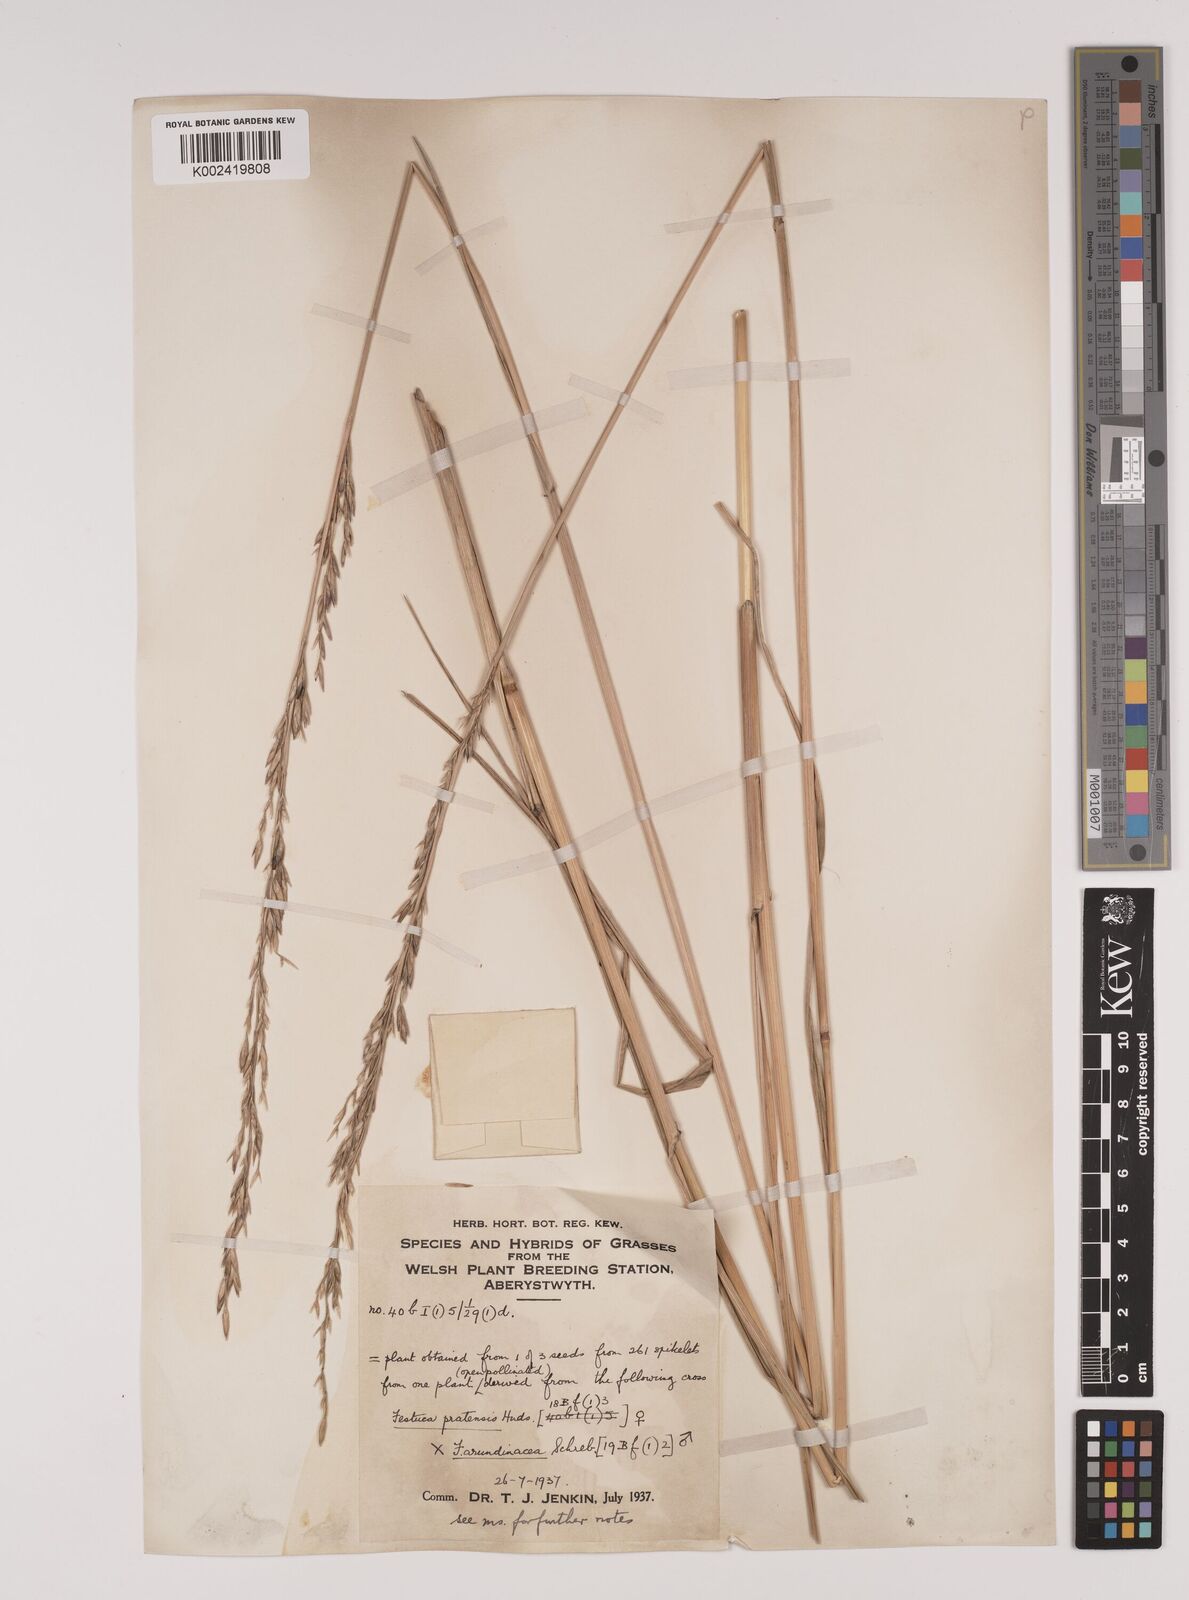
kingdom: Plantae
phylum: Tracheophyta
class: Liliopsida
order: Poales
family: Poaceae
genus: Festuca
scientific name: Festuca rubra
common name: Red fescue
